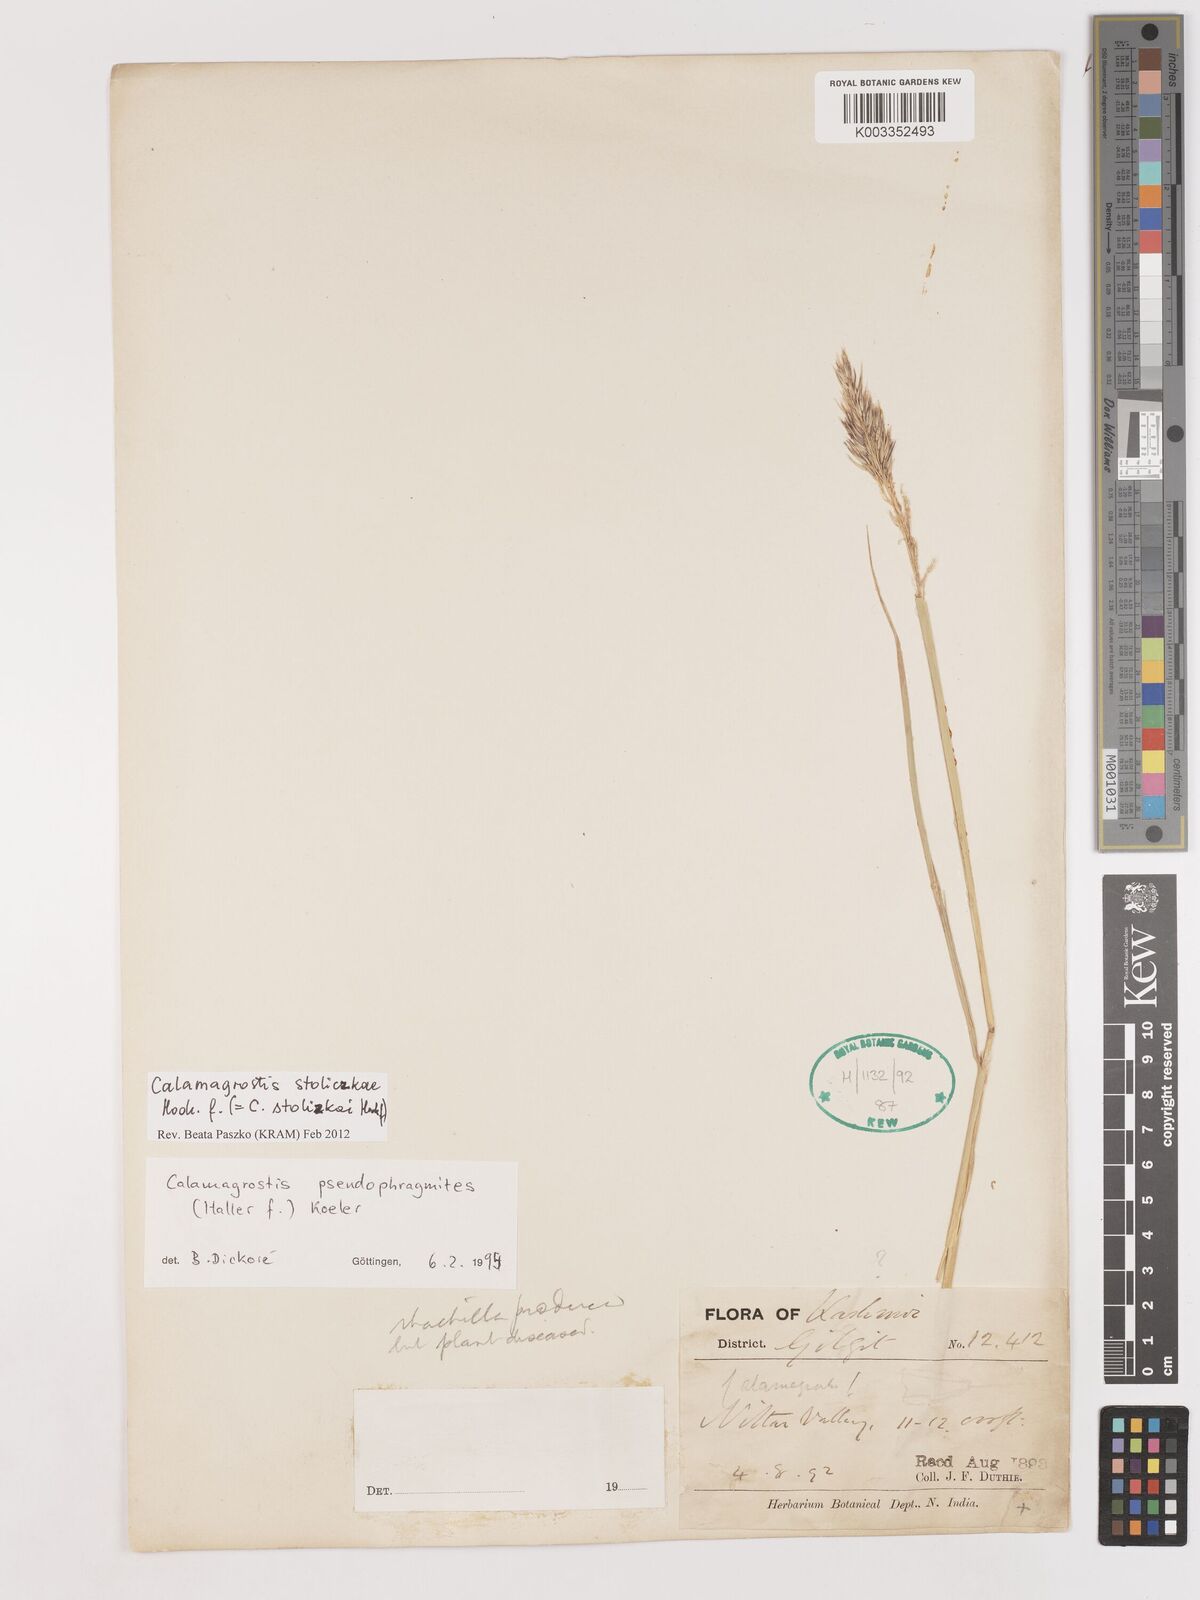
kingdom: Plantae
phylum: Tracheophyta
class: Liliopsida
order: Poales
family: Poaceae
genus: Calamagrostis
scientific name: Calamagrostis stolizkae
